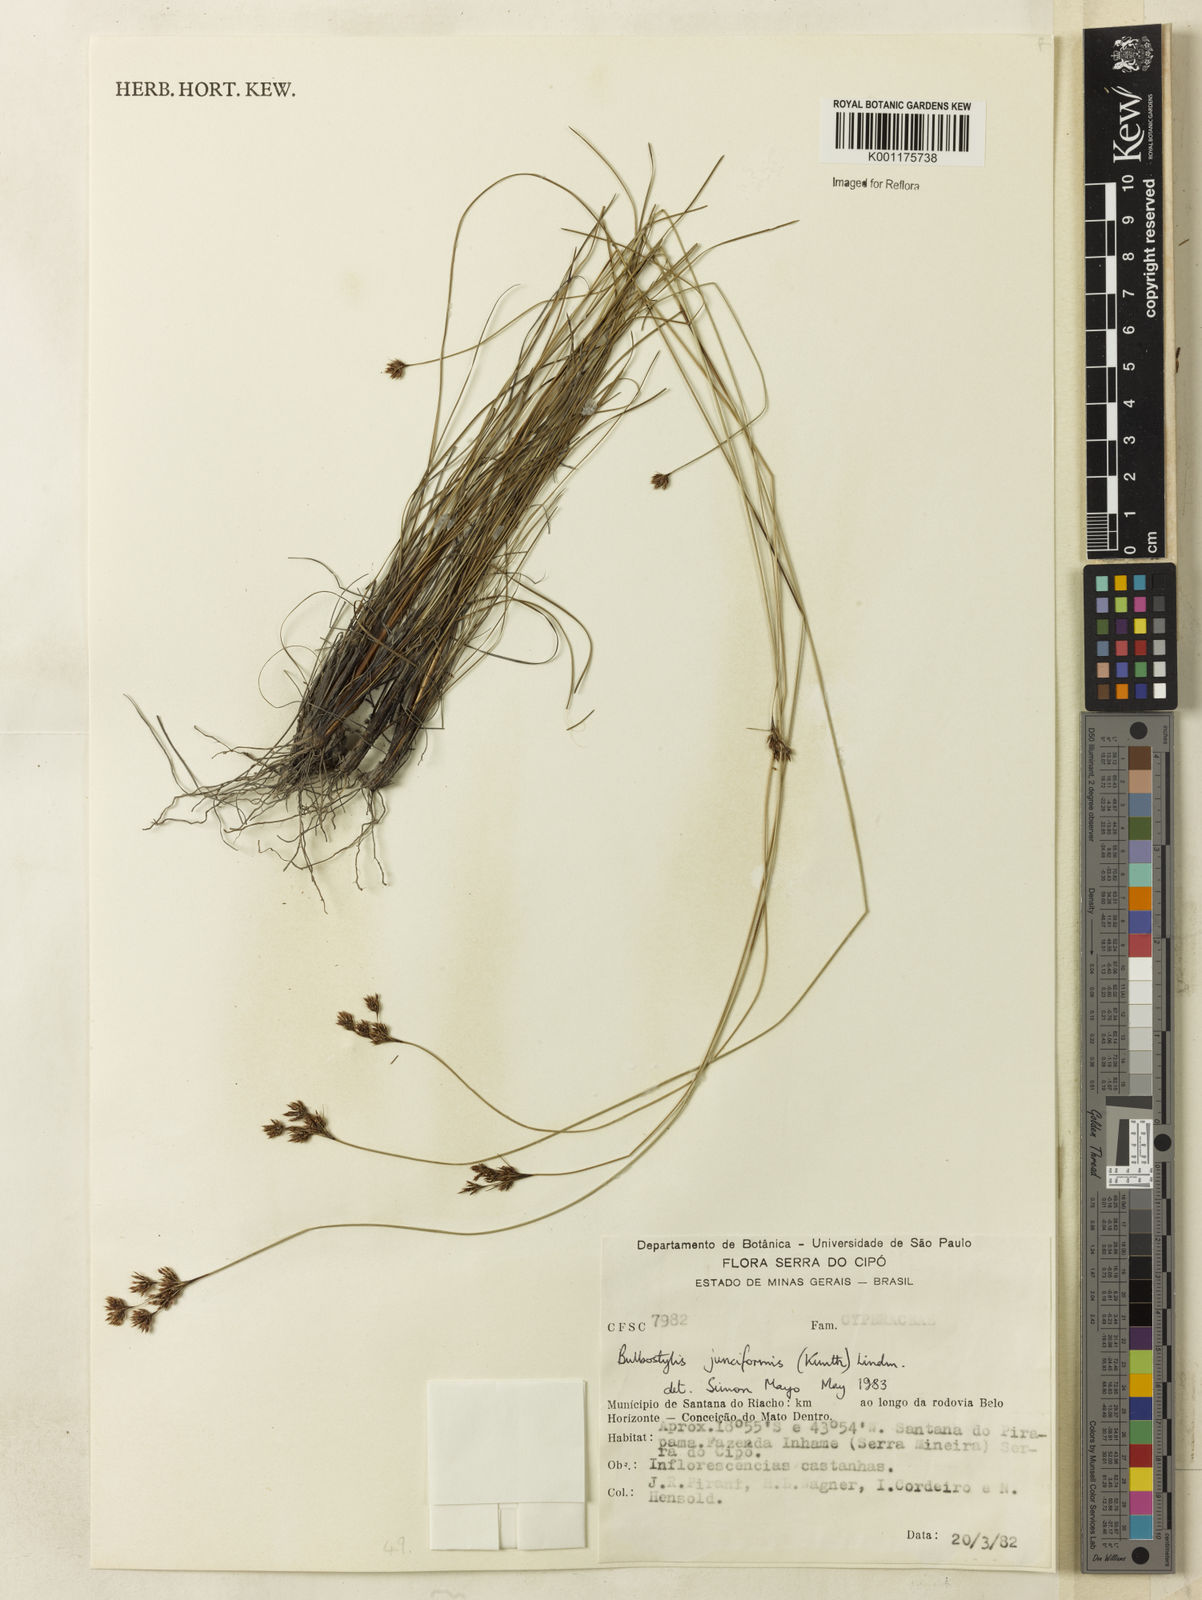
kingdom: Plantae
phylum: Tracheophyta
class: Liliopsida
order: Poales
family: Cyperaceae
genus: Bulbostylis
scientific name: Bulbostylis junciformis
